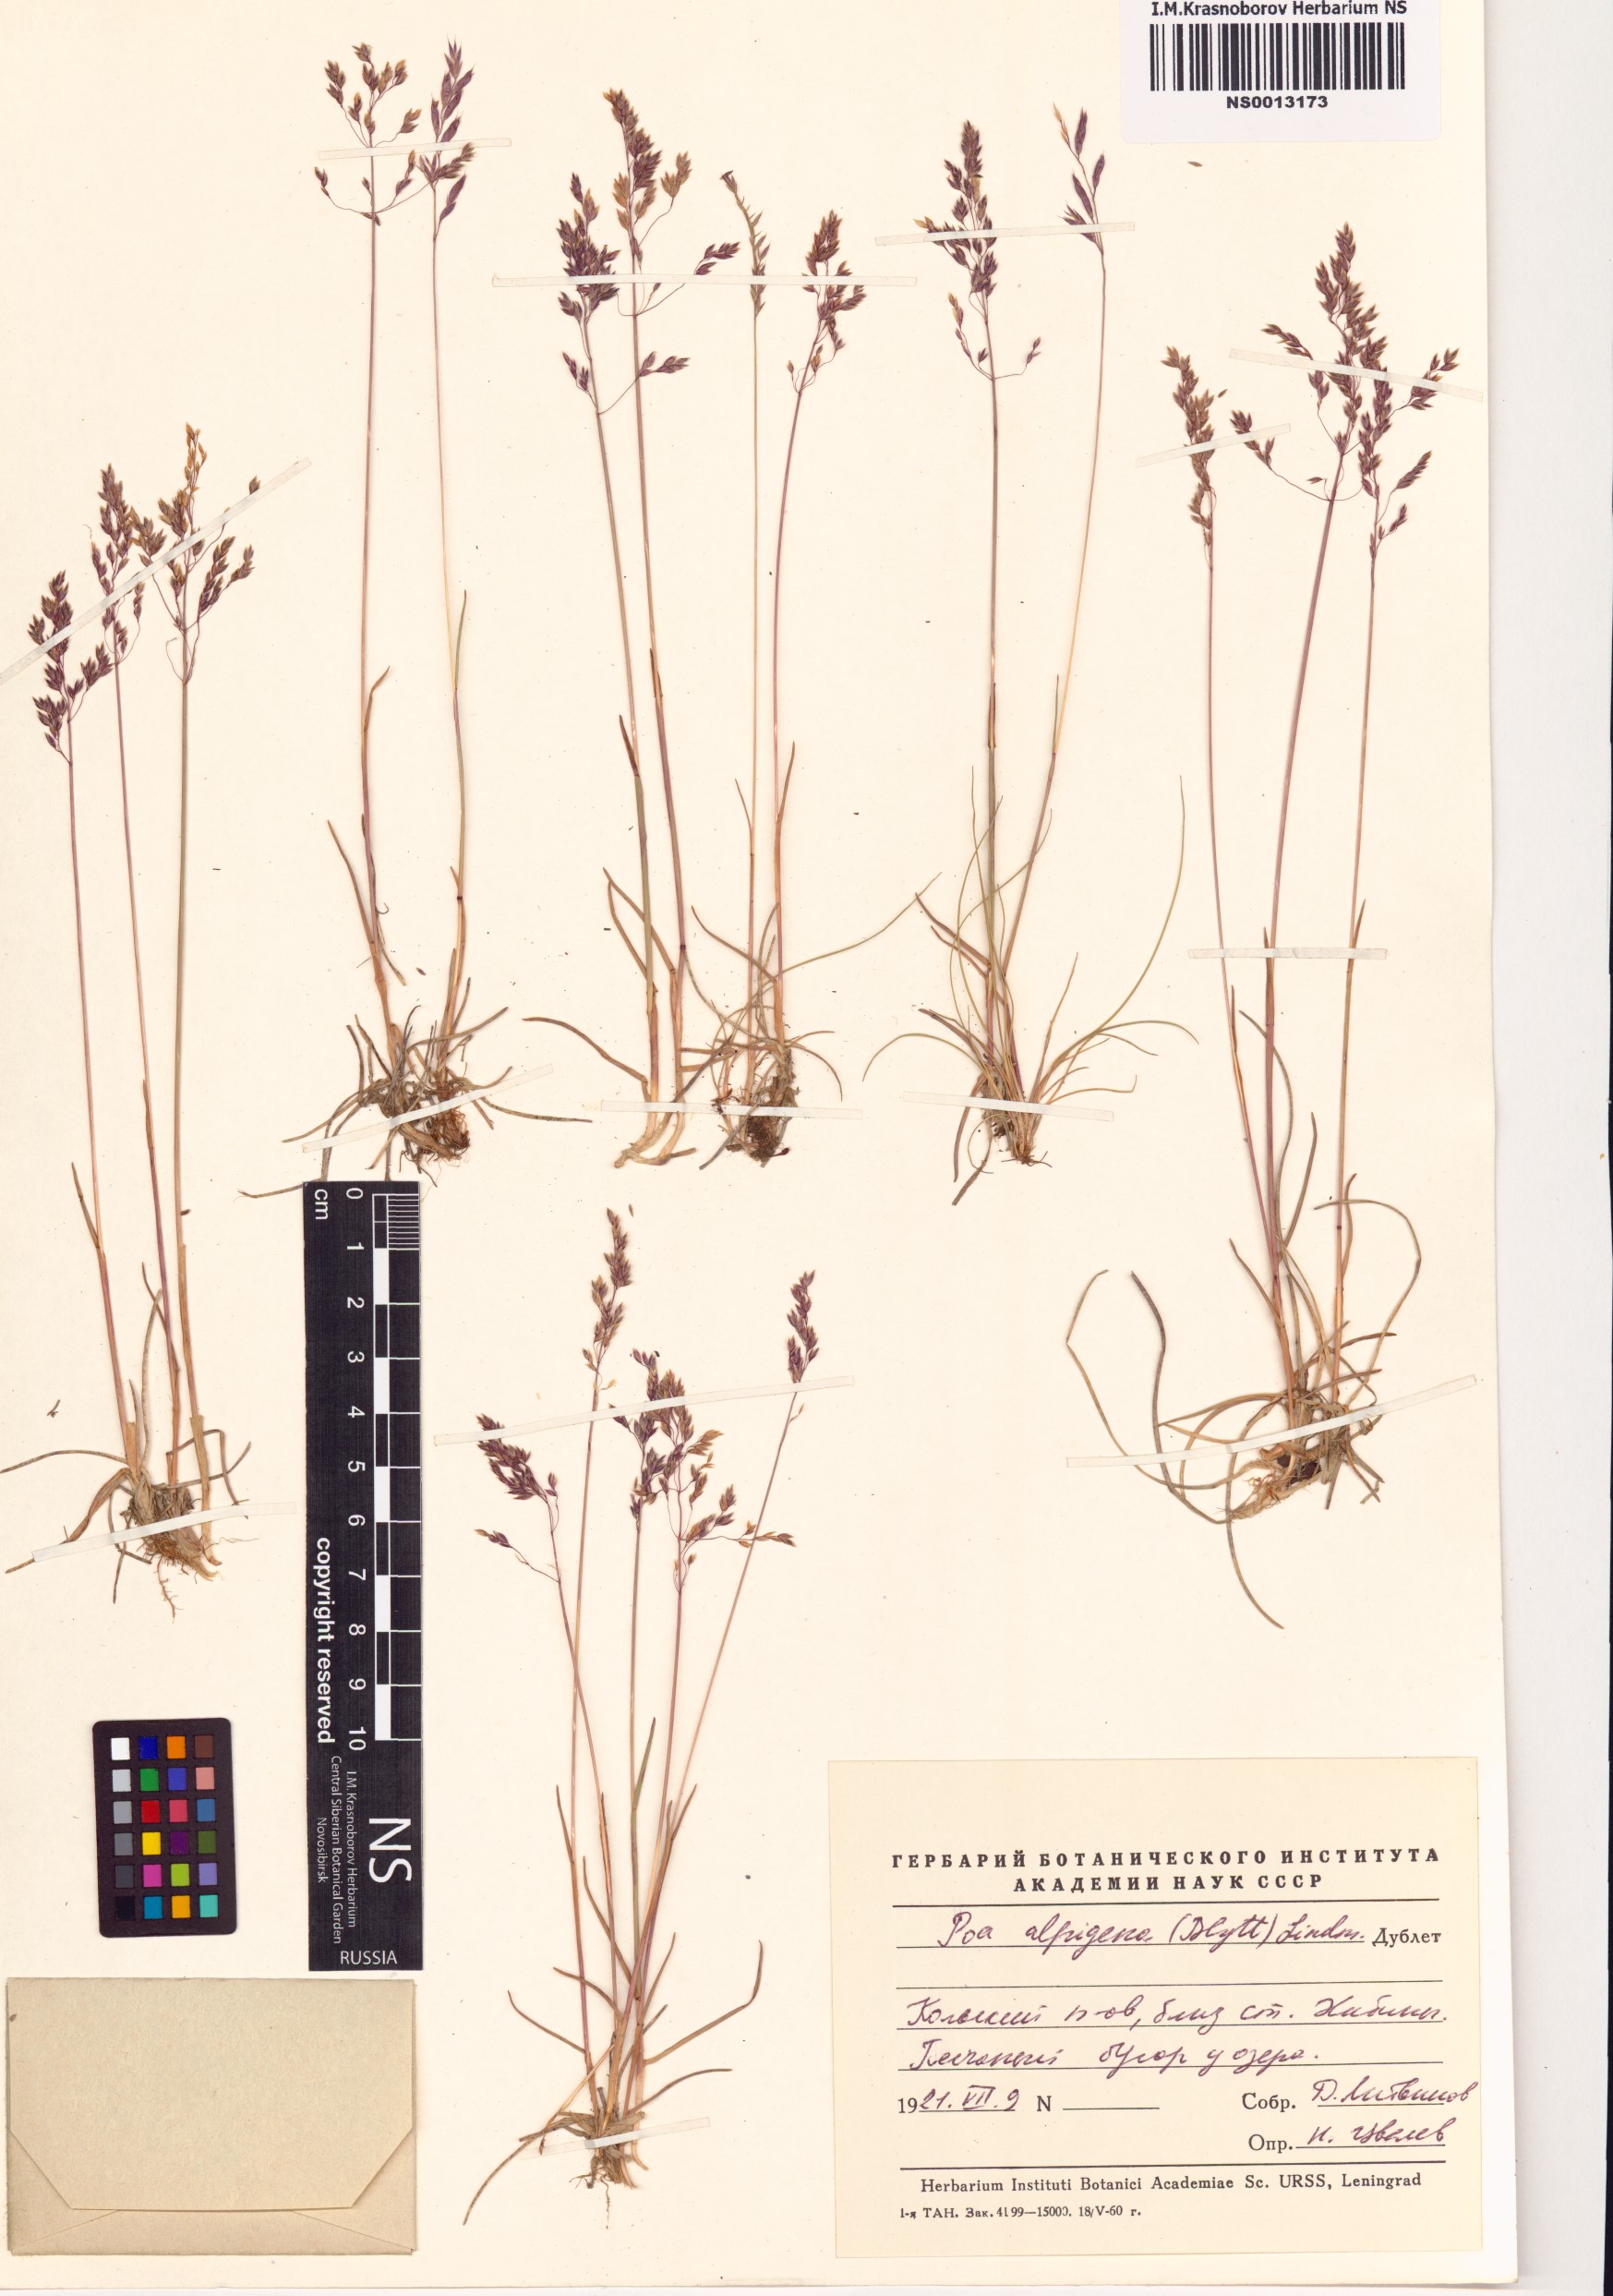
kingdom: Plantae
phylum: Tracheophyta
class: Liliopsida
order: Poales
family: Poaceae
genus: Poa
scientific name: Poa alpigena
